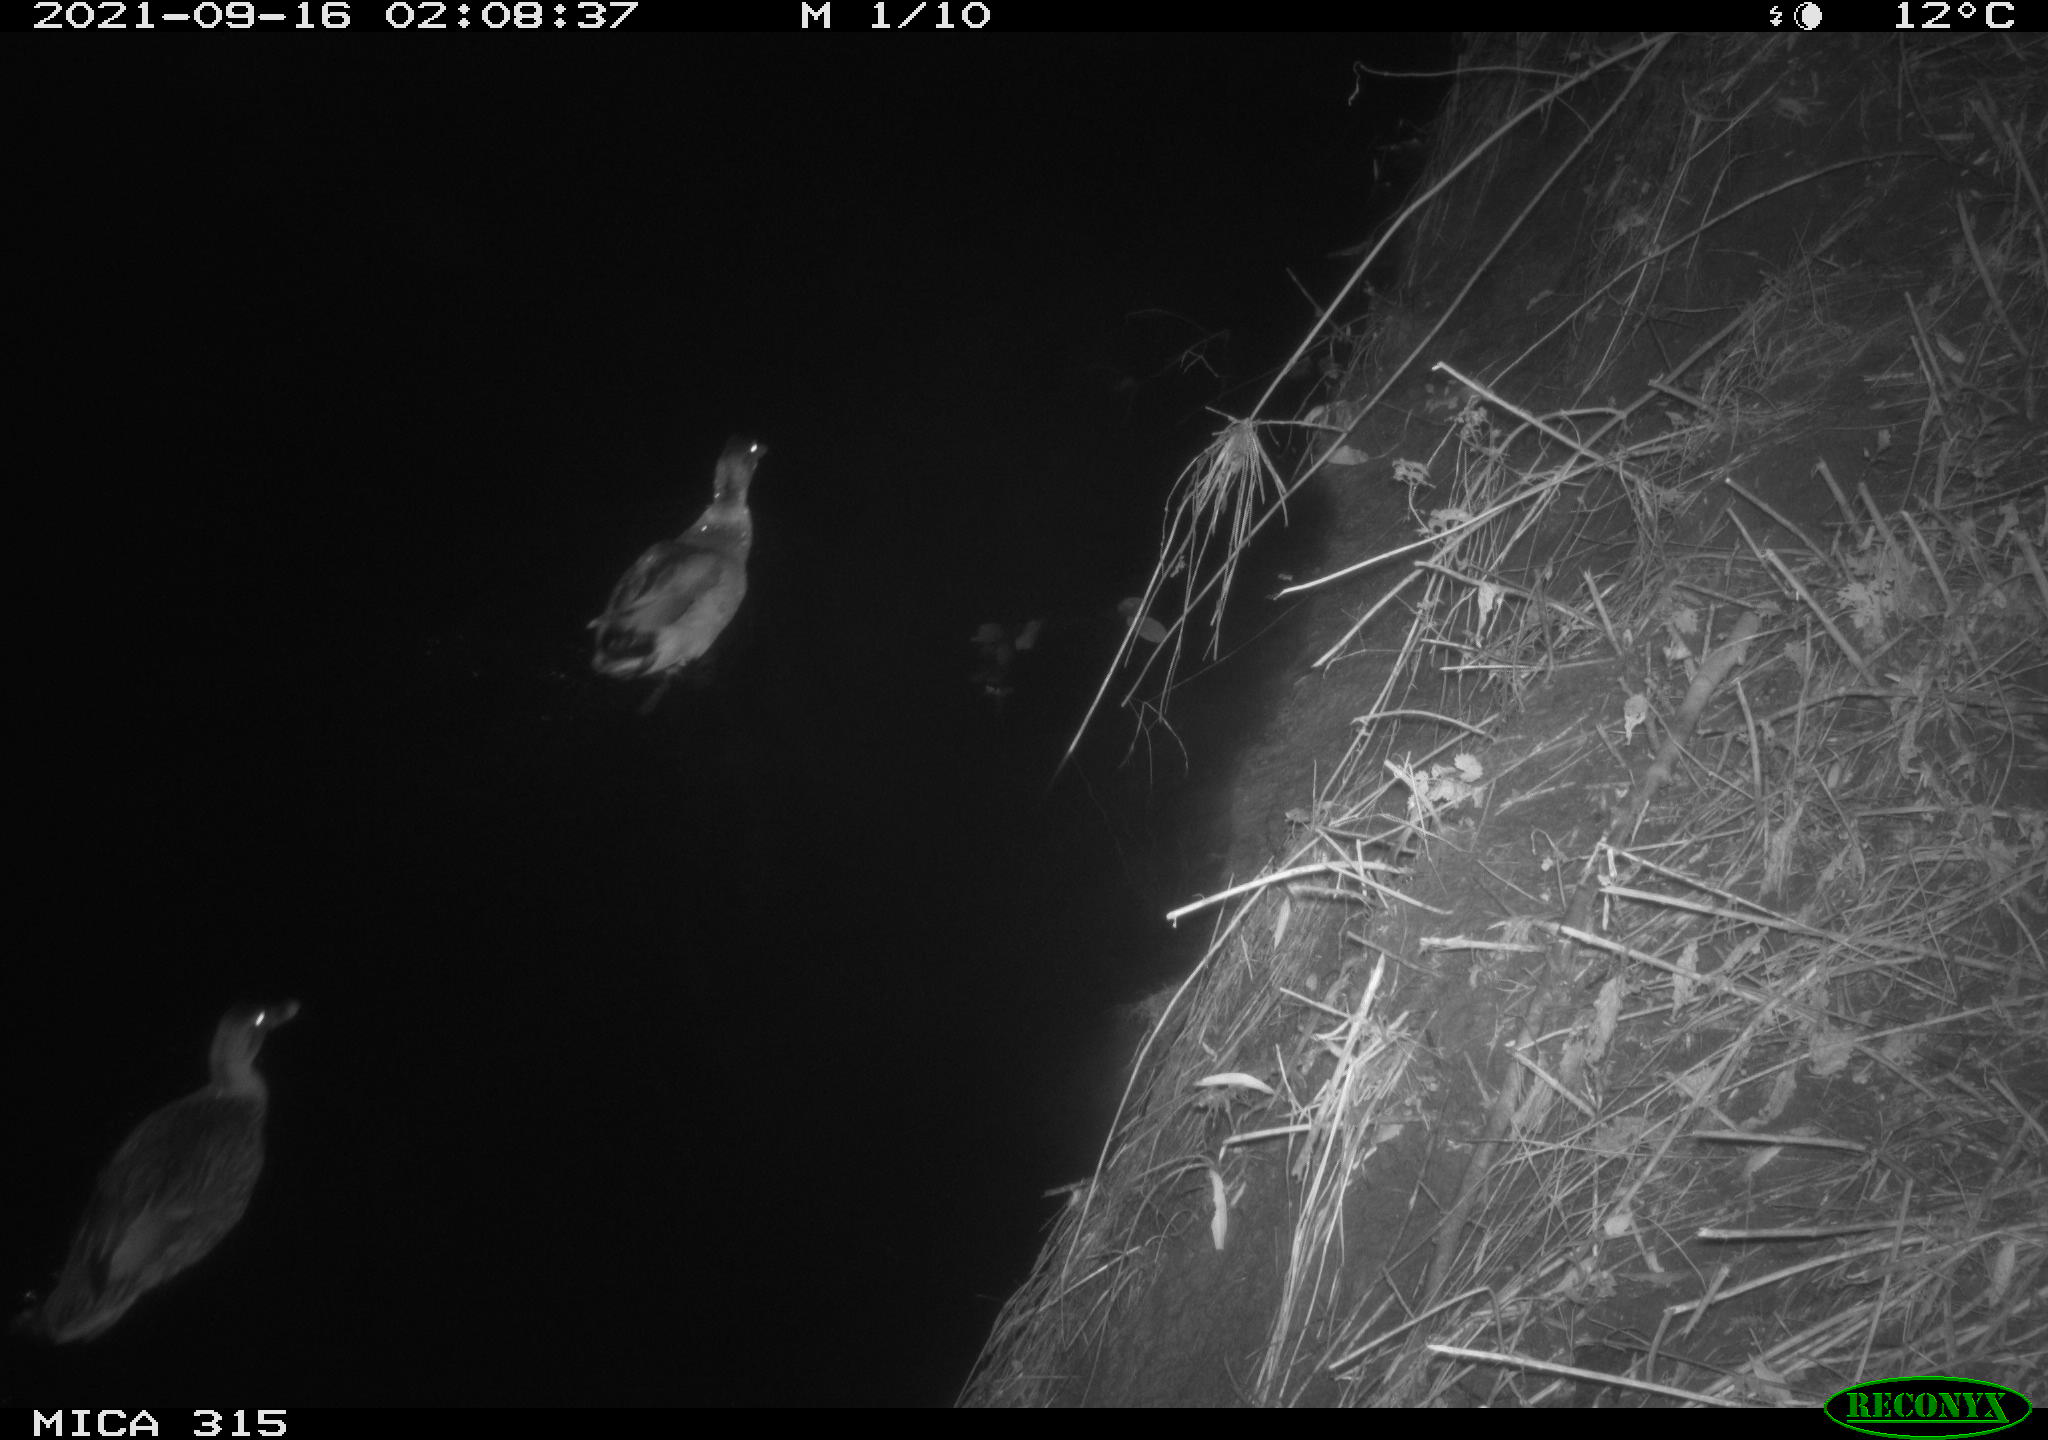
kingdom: Animalia
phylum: Chordata
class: Aves
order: Anseriformes
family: Anatidae
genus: Anas
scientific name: Anas platyrhynchos
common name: Mallard
